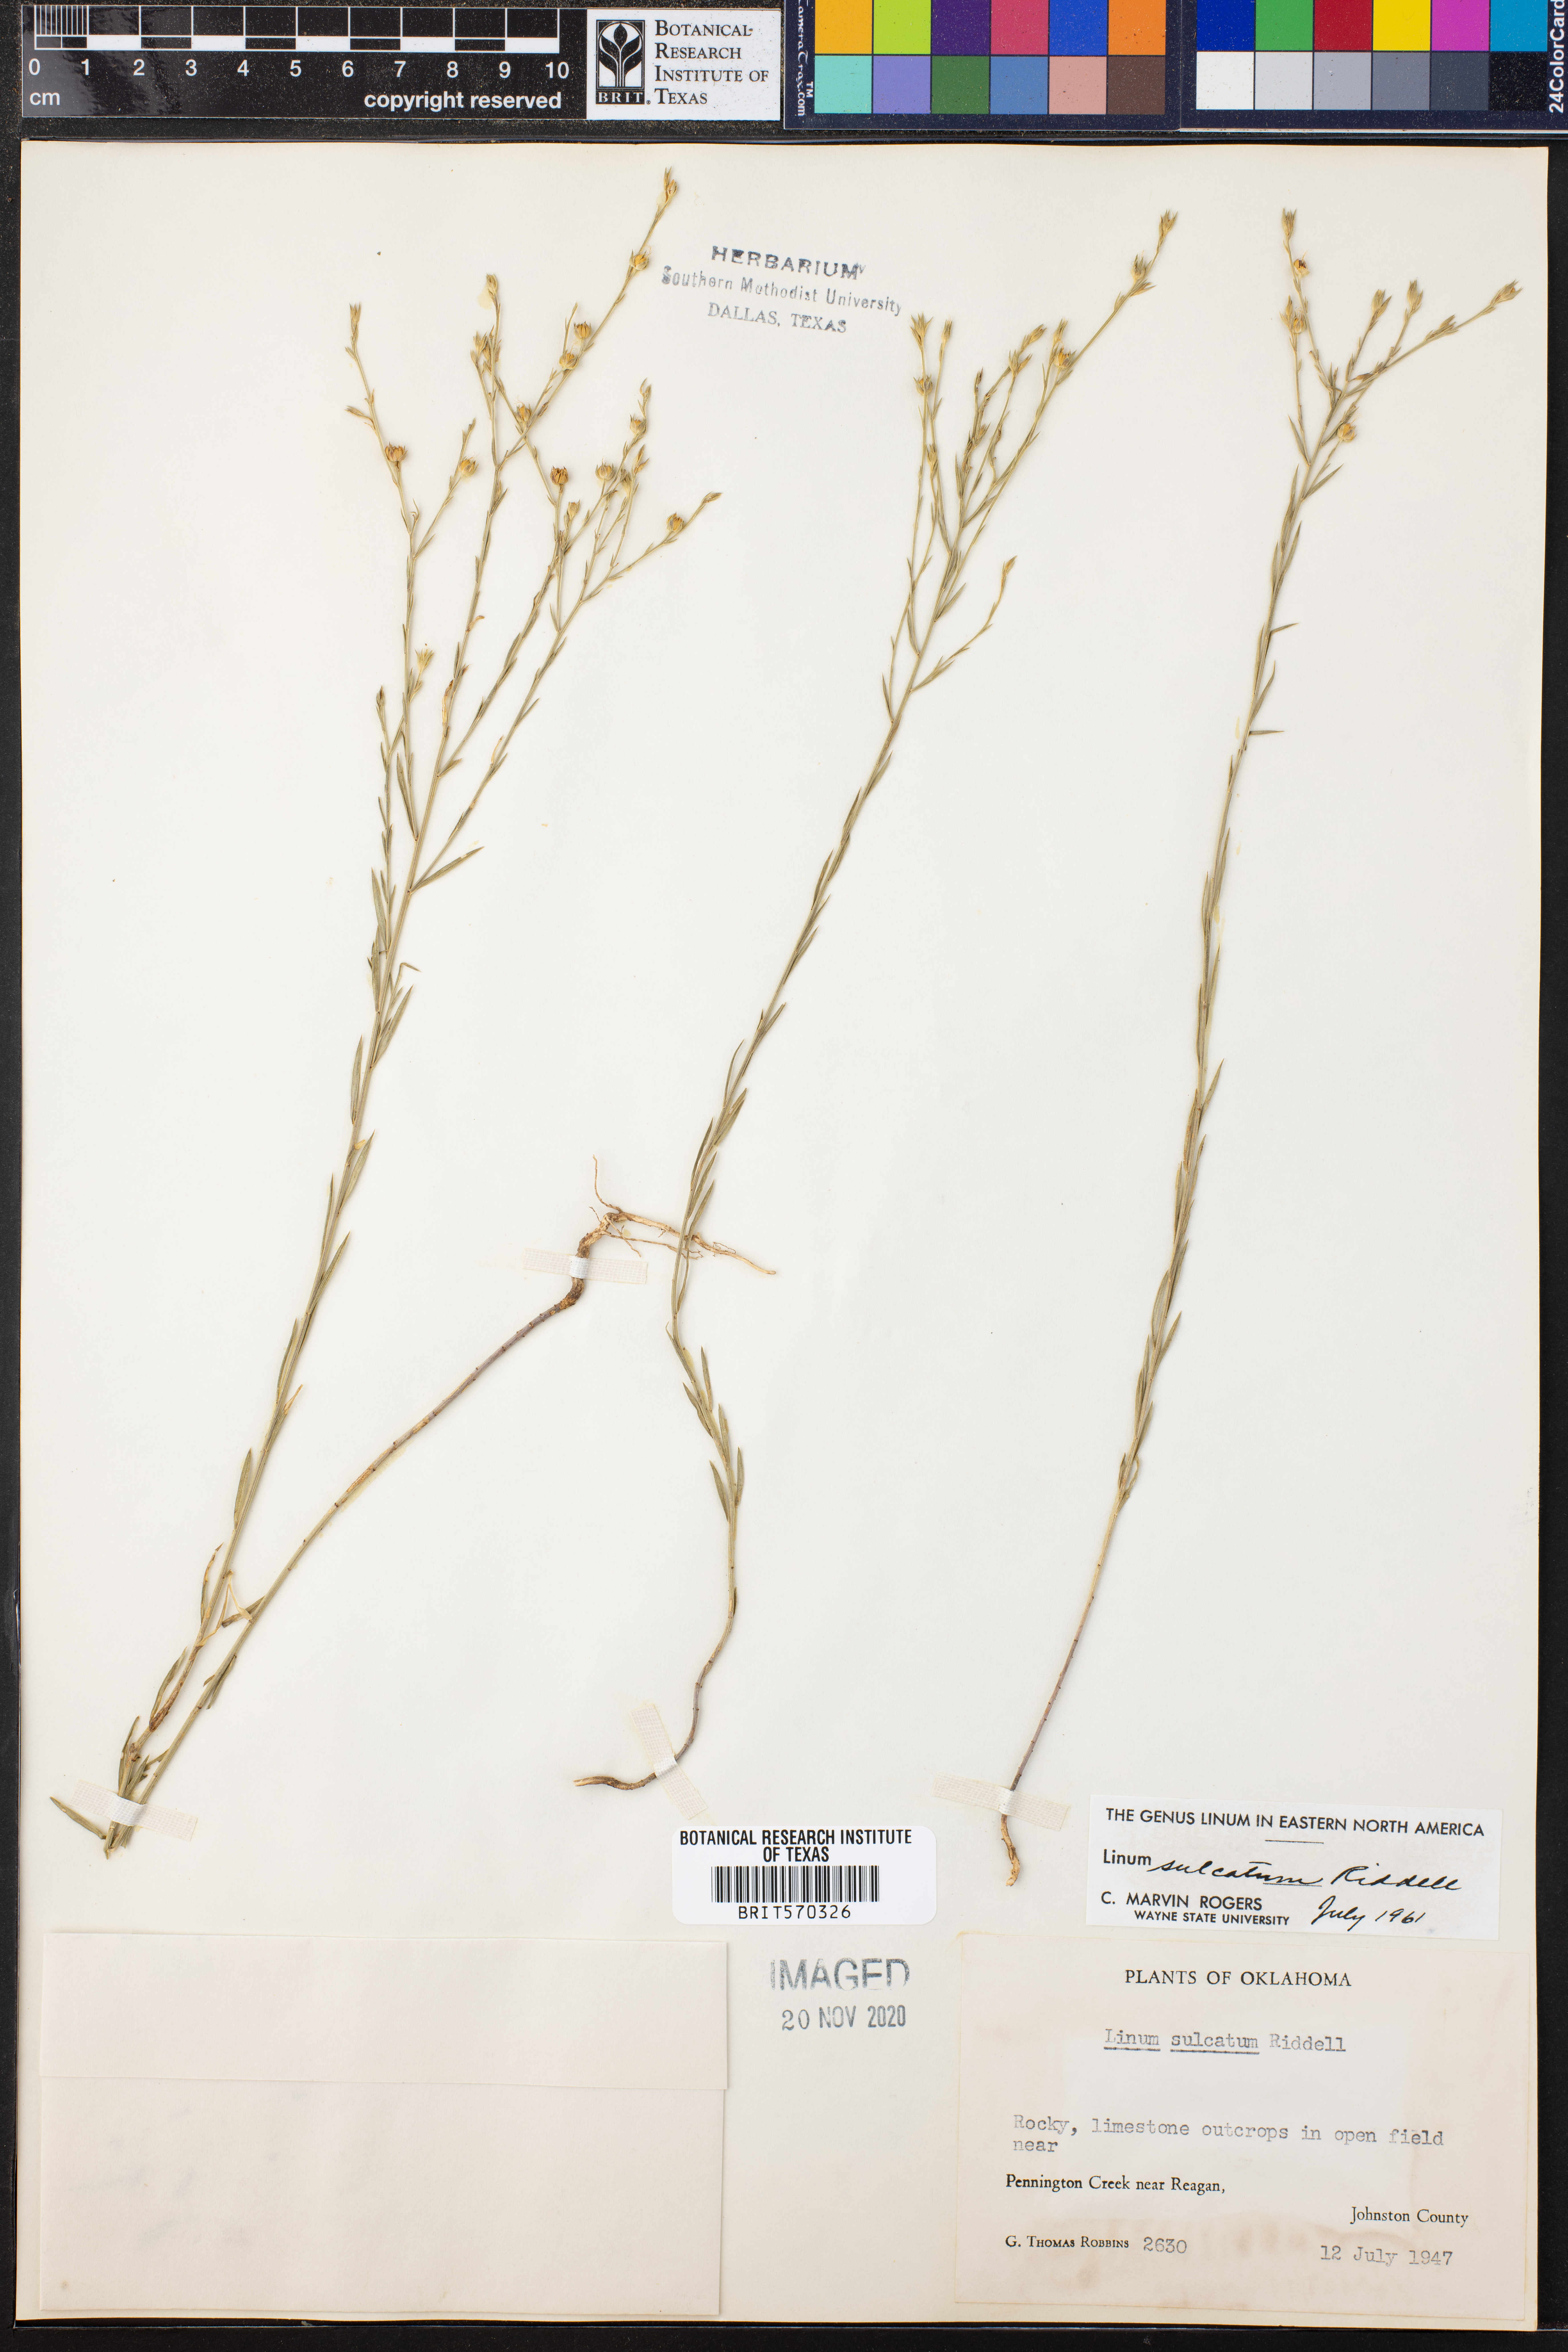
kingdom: Plantae
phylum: Tracheophyta
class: Magnoliopsida
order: Malpighiales
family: Linaceae
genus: Linum
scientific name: Linum sulcatum
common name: Grooved flax
